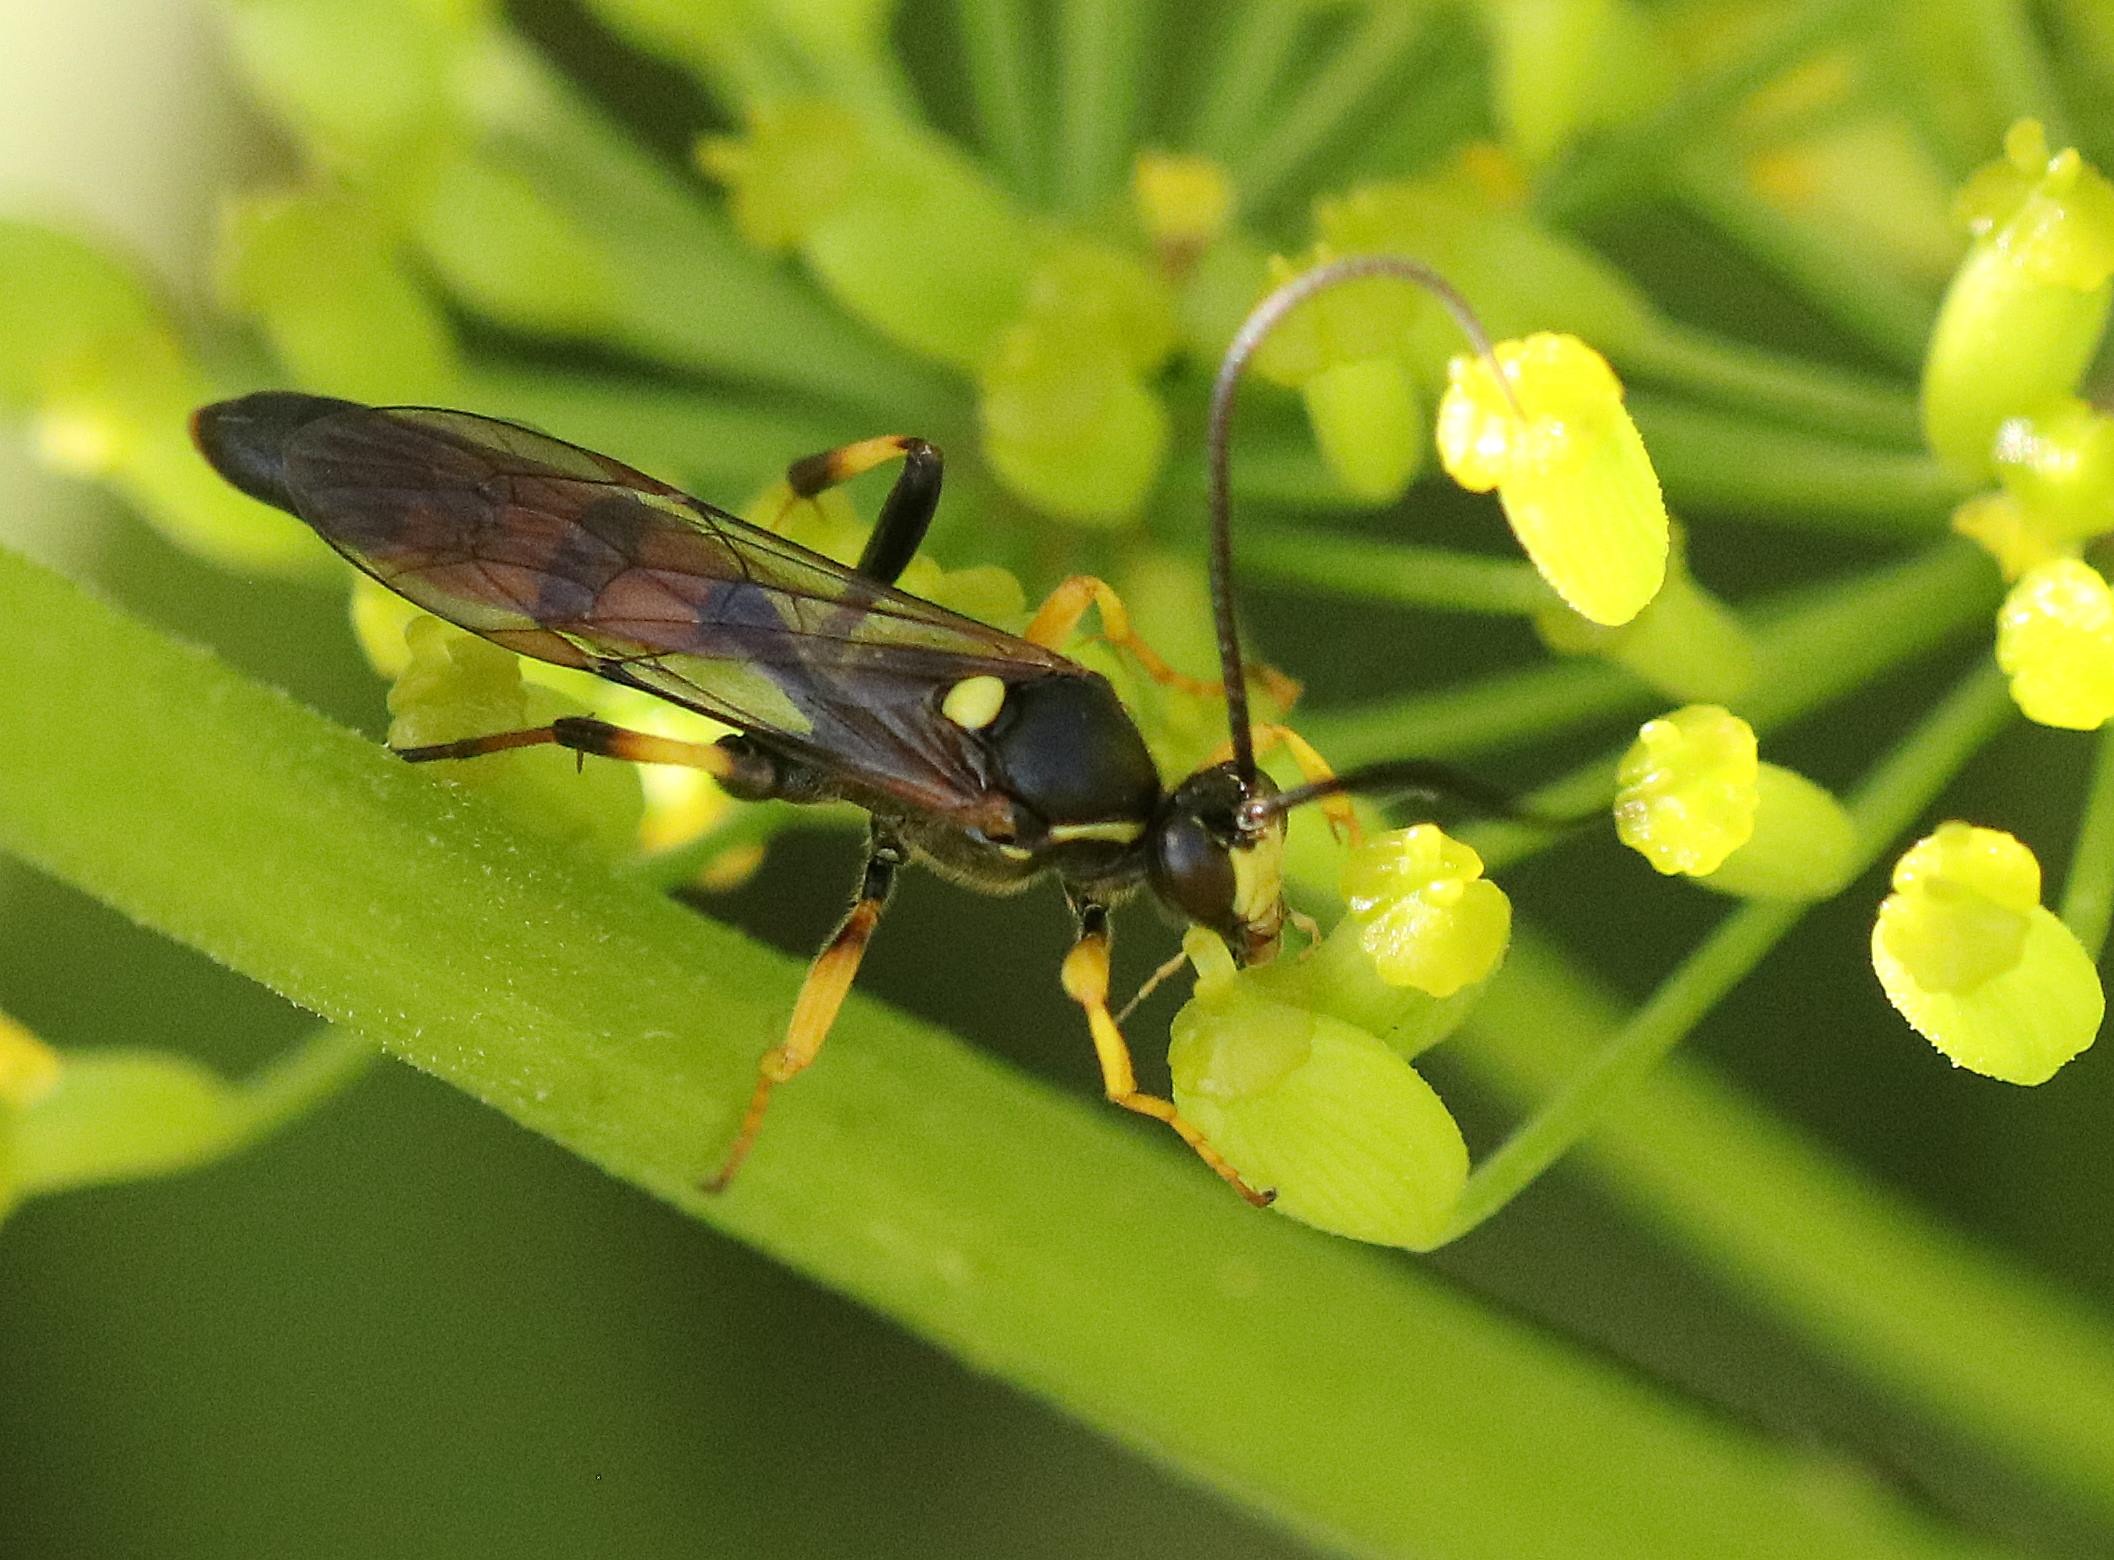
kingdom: Animalia
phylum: Arthropoda
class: Insecta
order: Hymenoptera
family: Ichneumonidae
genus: Diphyus
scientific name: Diphyus
